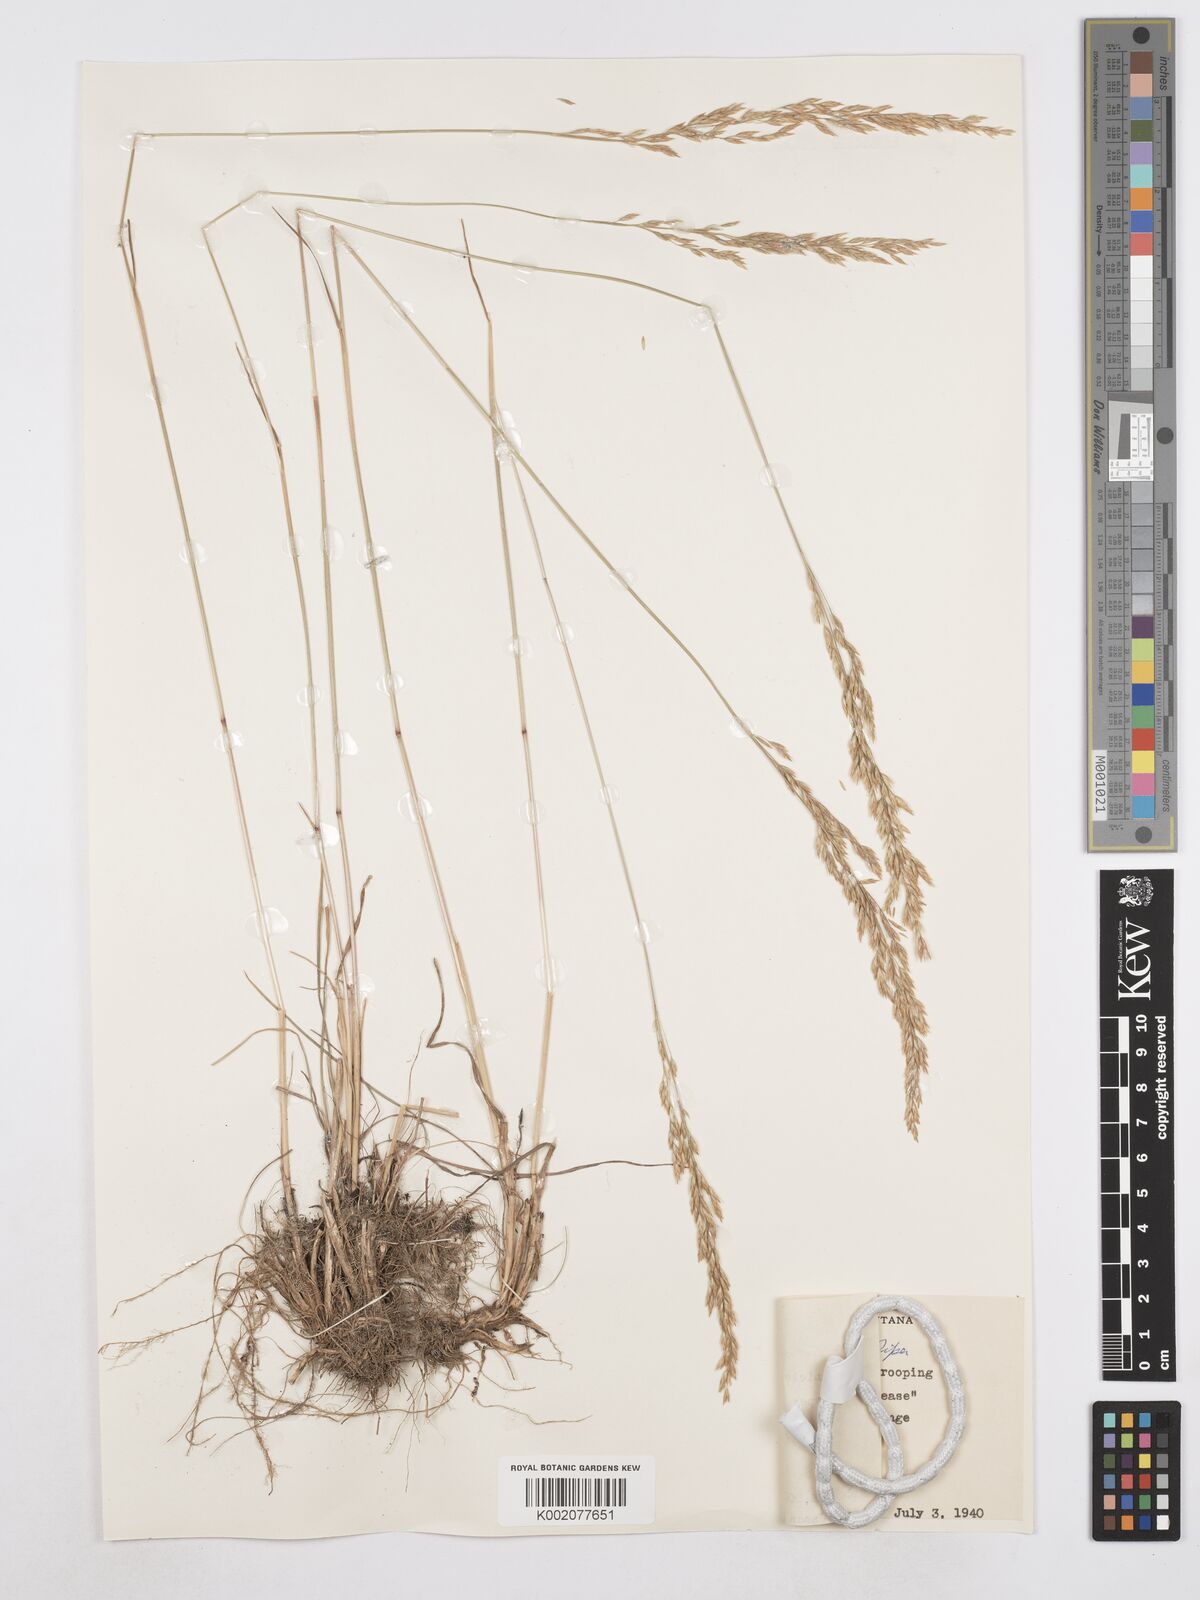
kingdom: Plantae
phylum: Tracheophyta
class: Liliopsida
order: Poales
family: Poaceae
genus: Poa
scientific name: Poa secunda
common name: Sandberg bluegrass
